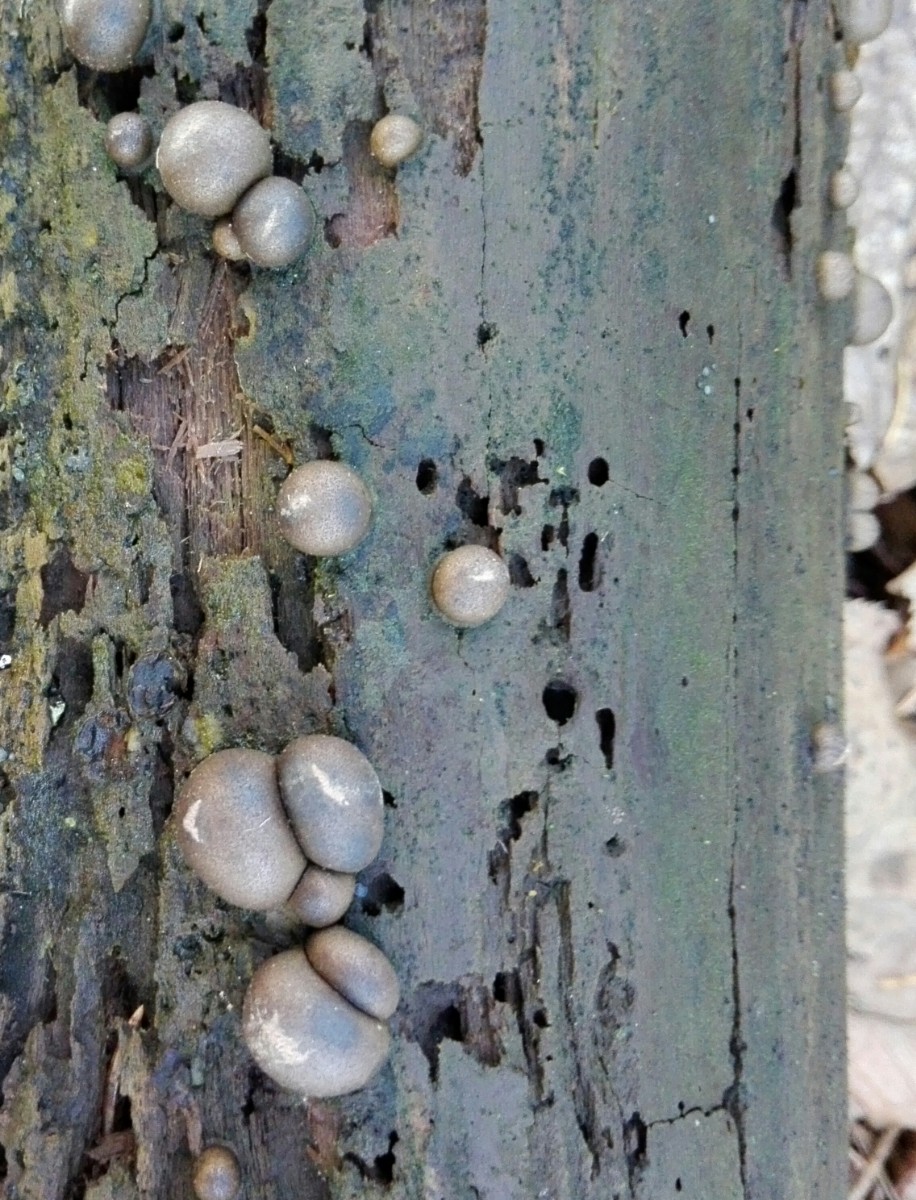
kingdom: Protozoa
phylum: Mycetozoa
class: Myxomycetes
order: Cribrariales
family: Tubiferaceae
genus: Lycogala
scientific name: Lycogala epidendrum
